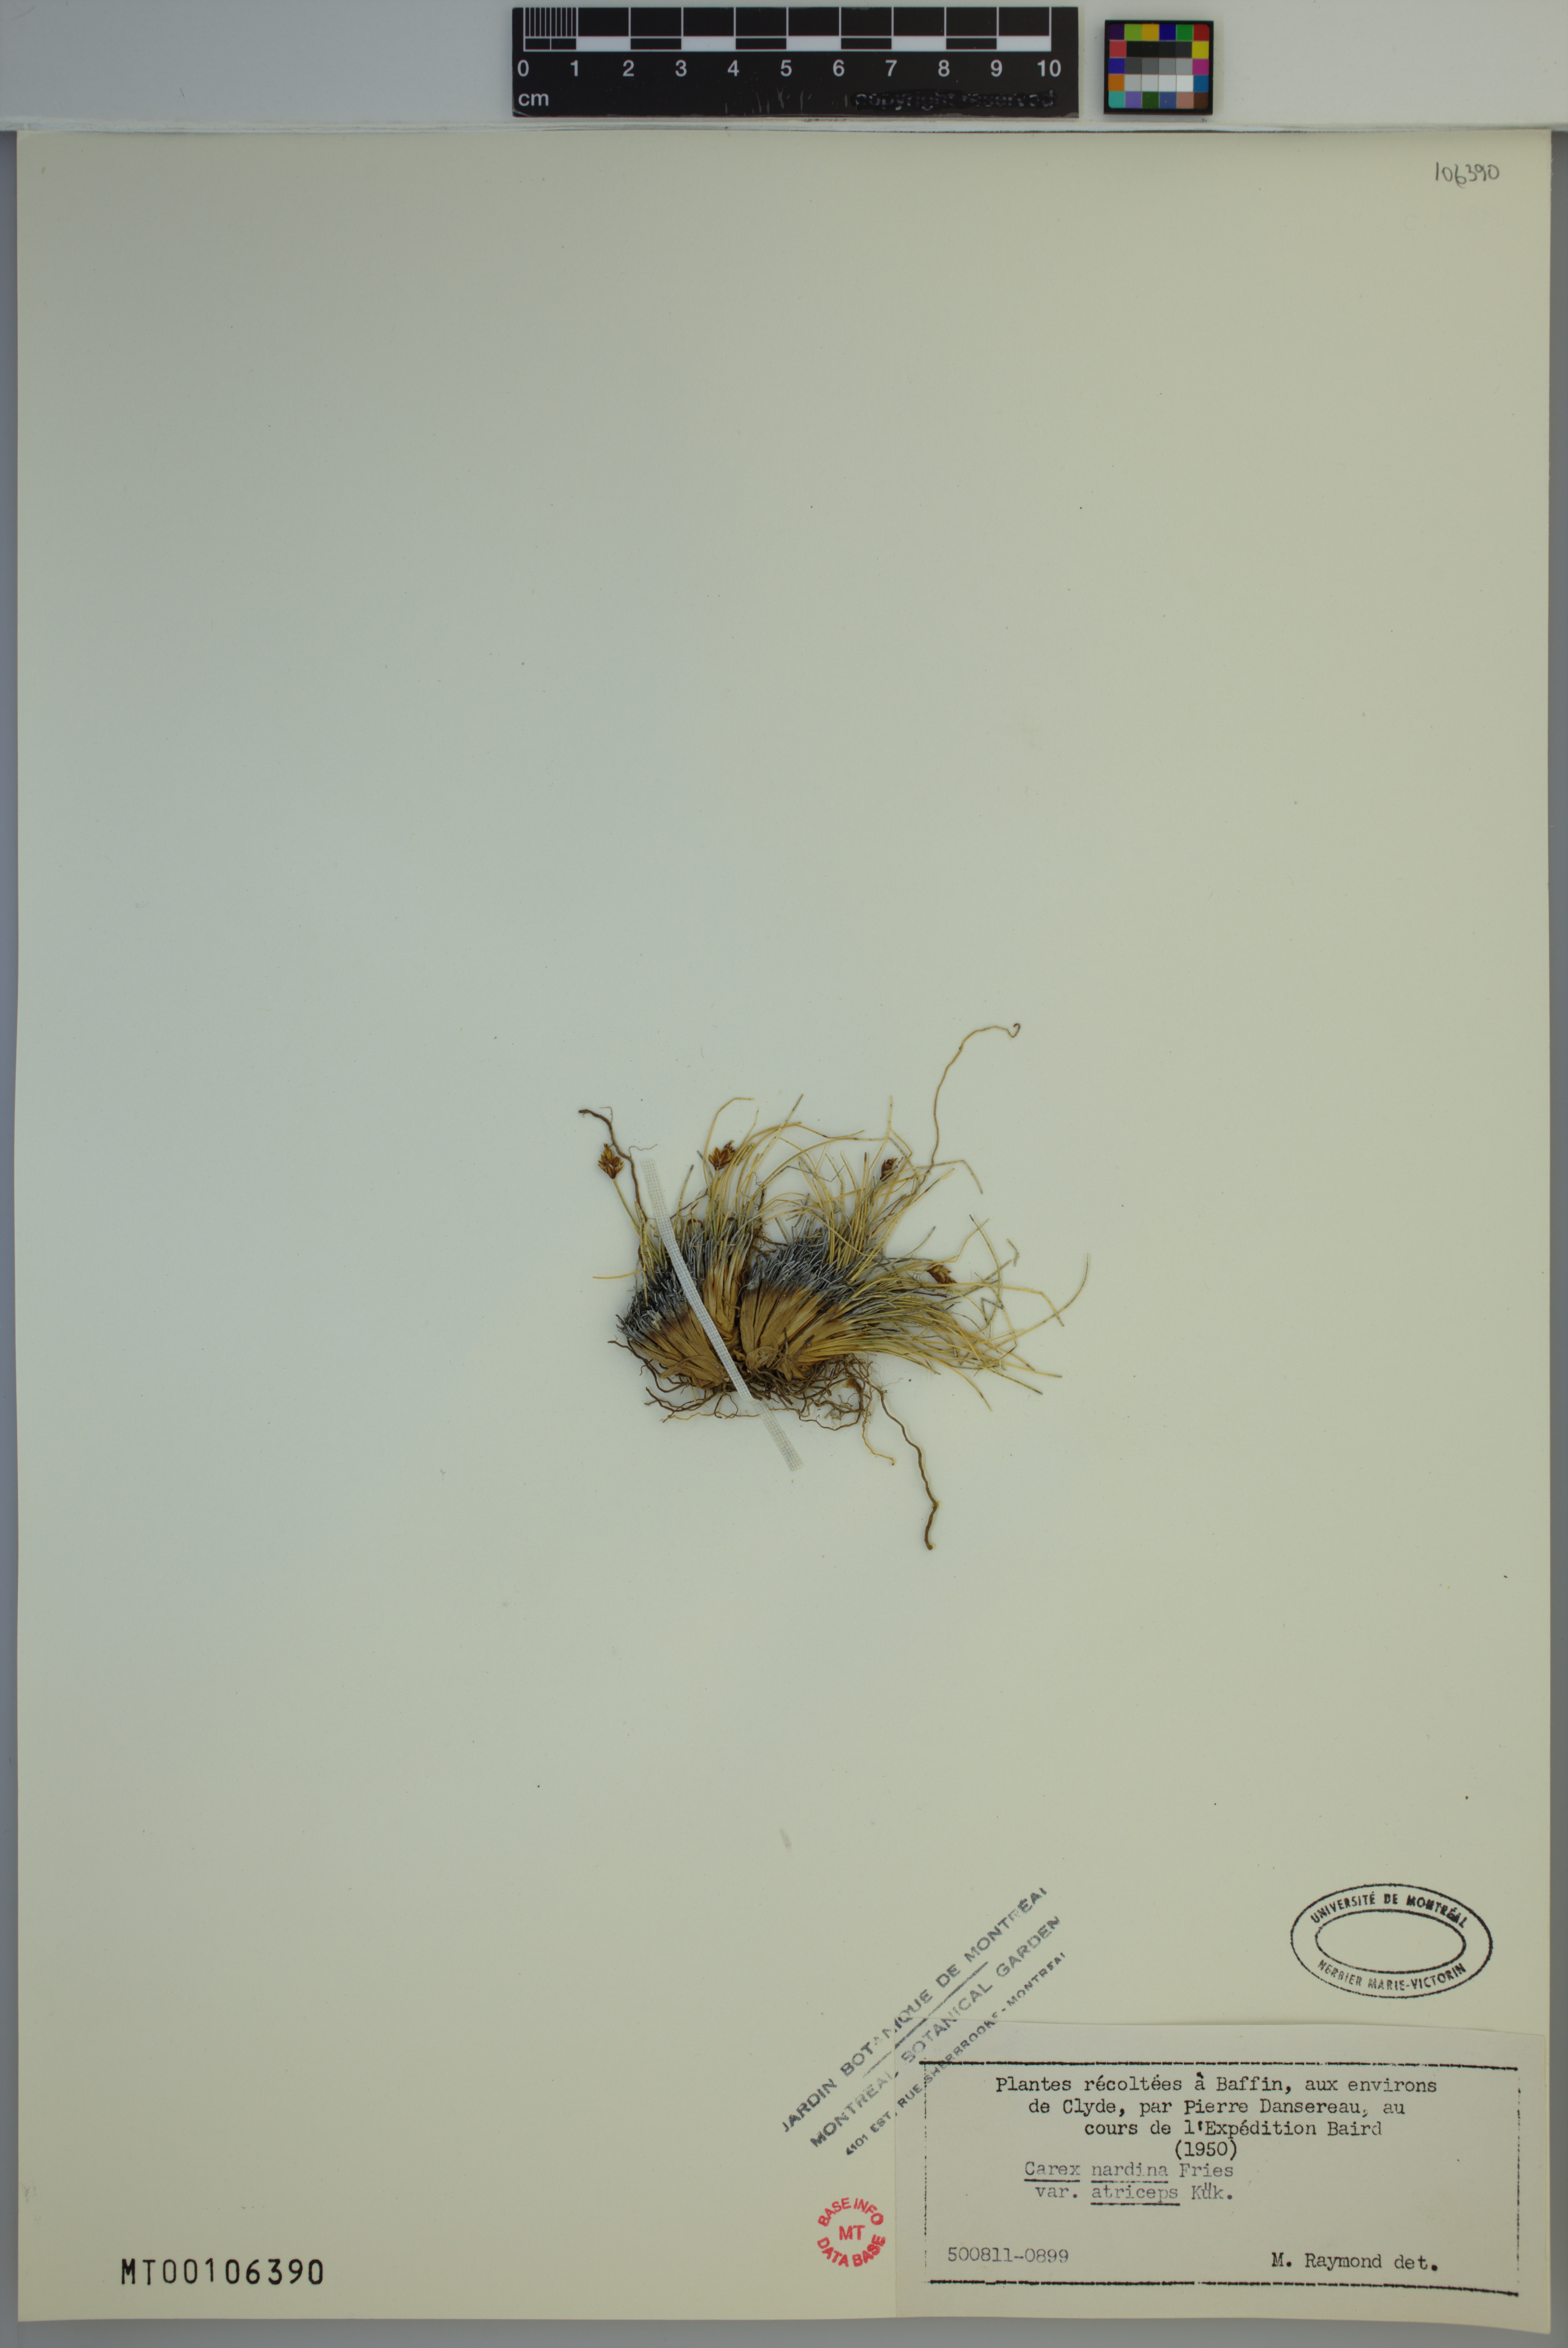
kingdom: Plantae
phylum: Tracheophyta
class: Liliopsida
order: Poales
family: Cyperaceae
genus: Carex
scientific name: Carex nardina
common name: Nard sedge
